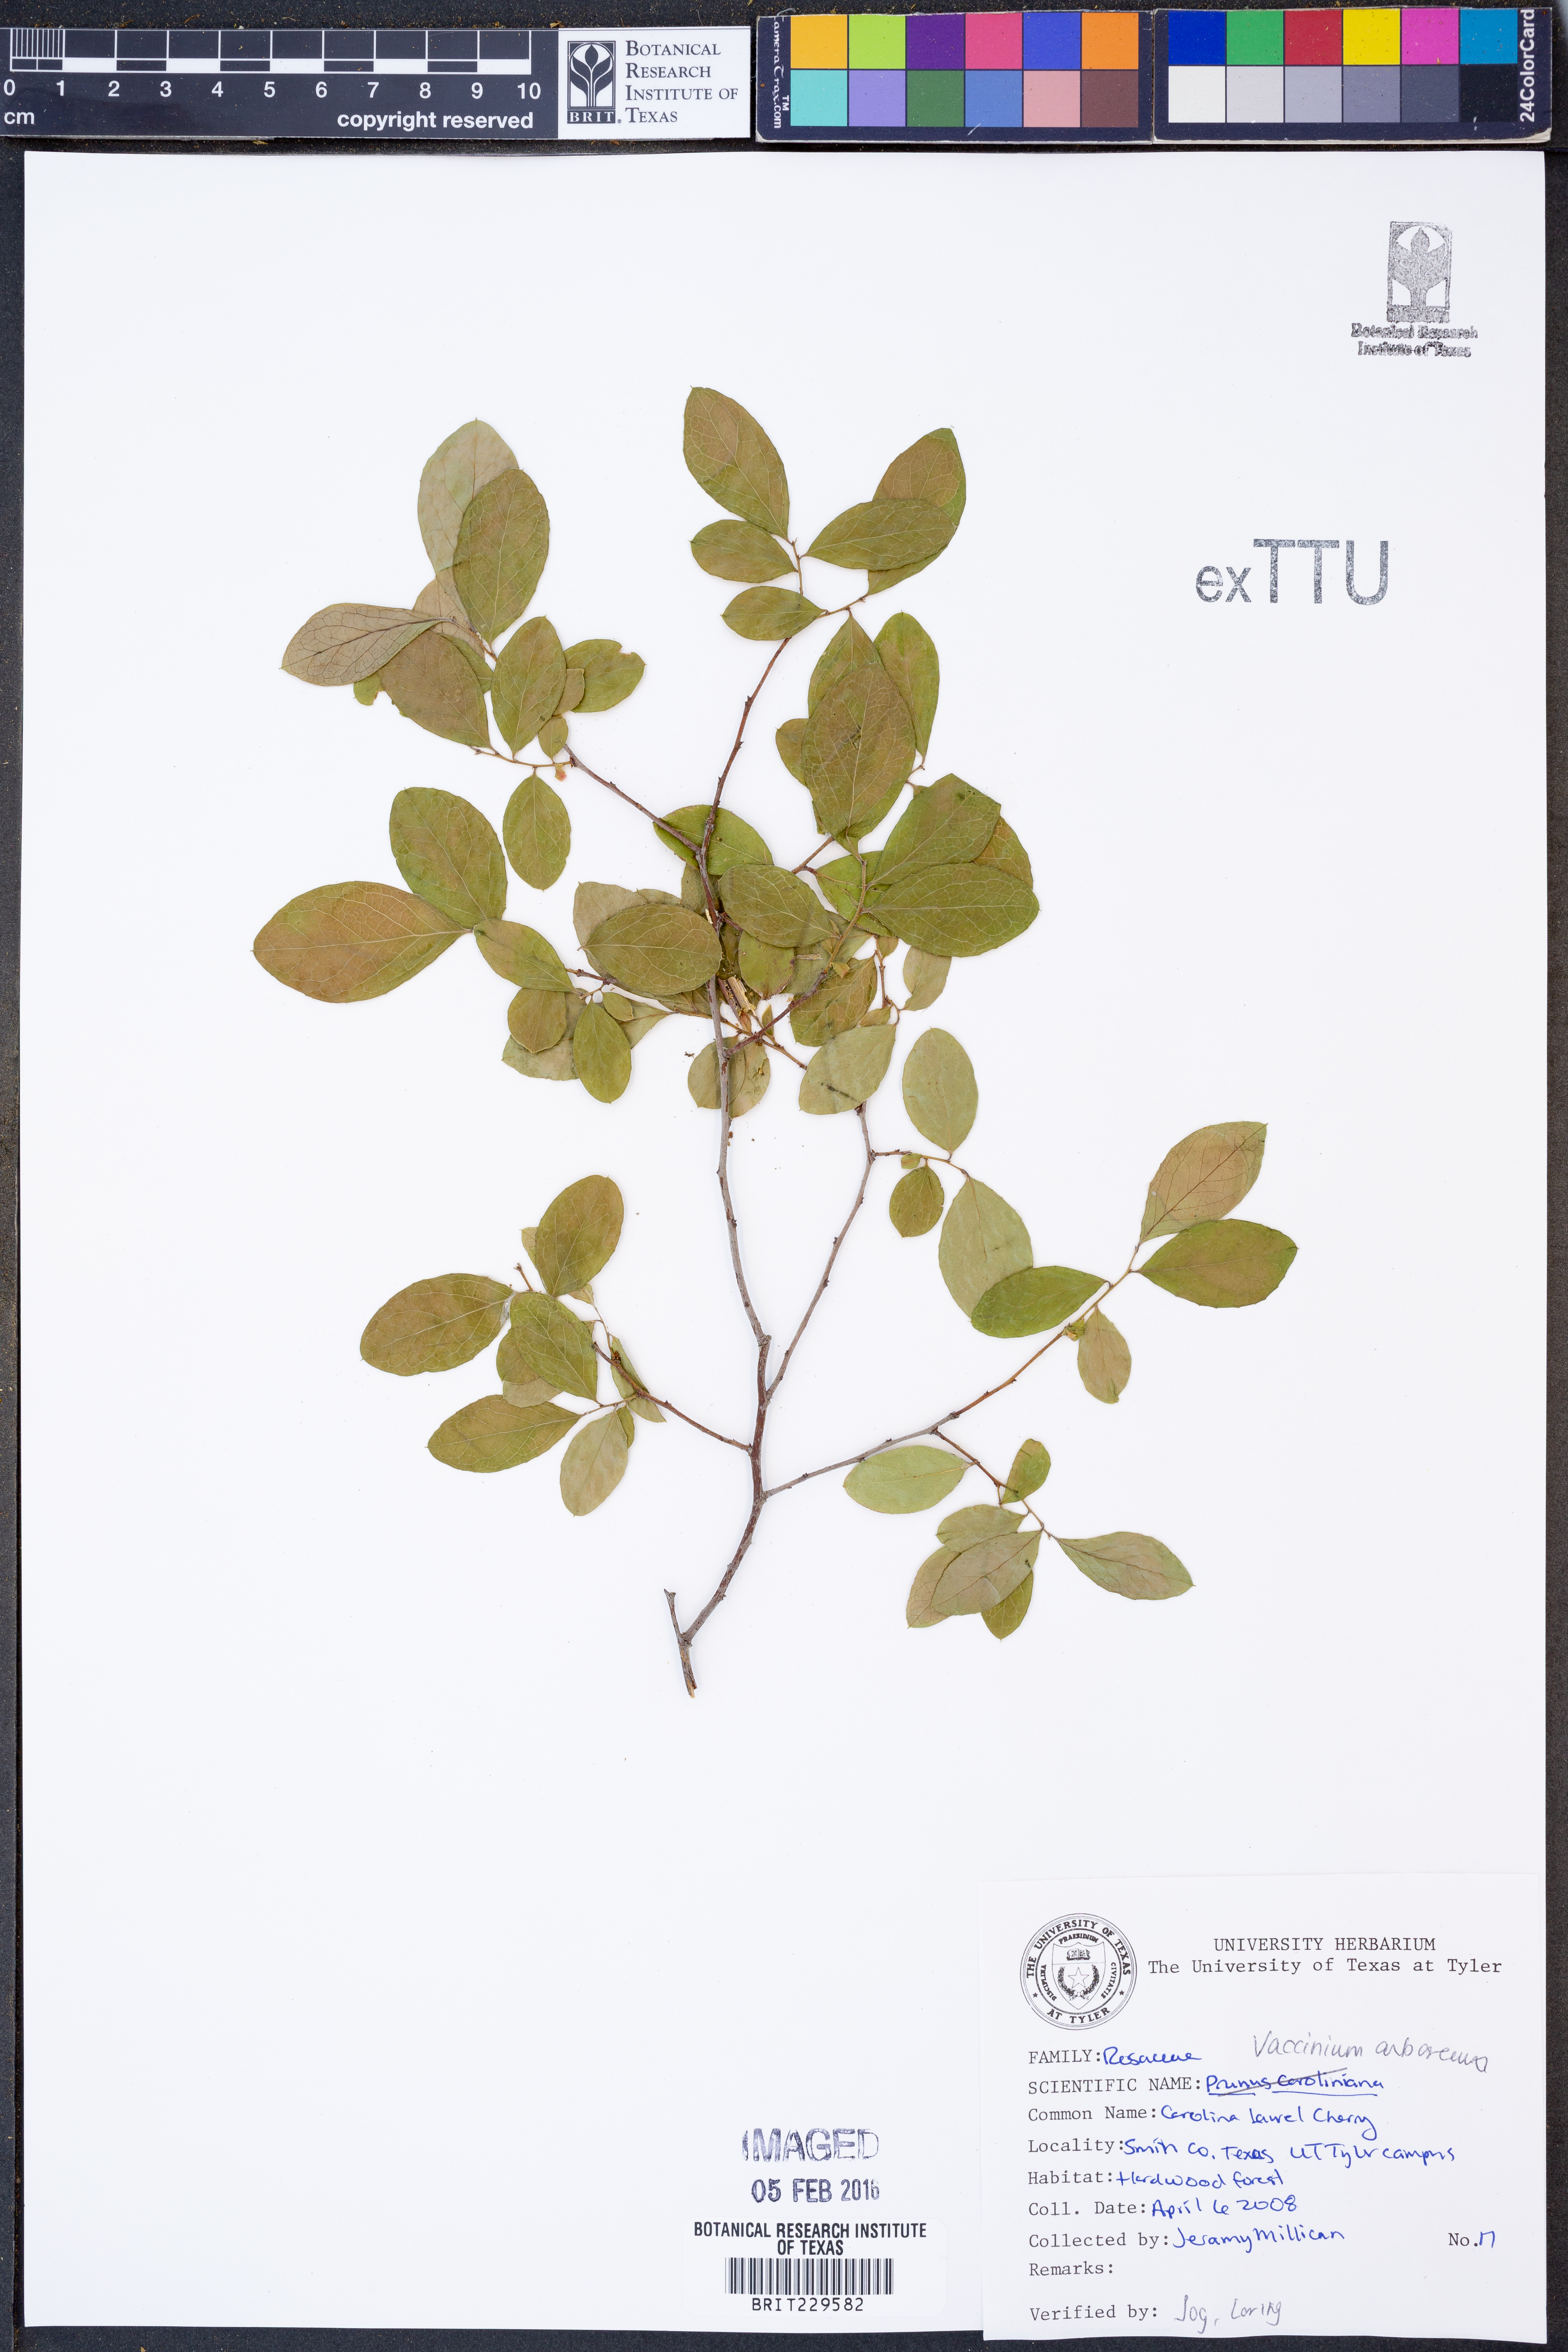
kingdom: Plantae
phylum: Tracheophyta
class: Magnoliopsida
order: Ericales
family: Ericaceae
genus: Vaccinium
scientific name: Vaccinium arboreum
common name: Farkleberry
